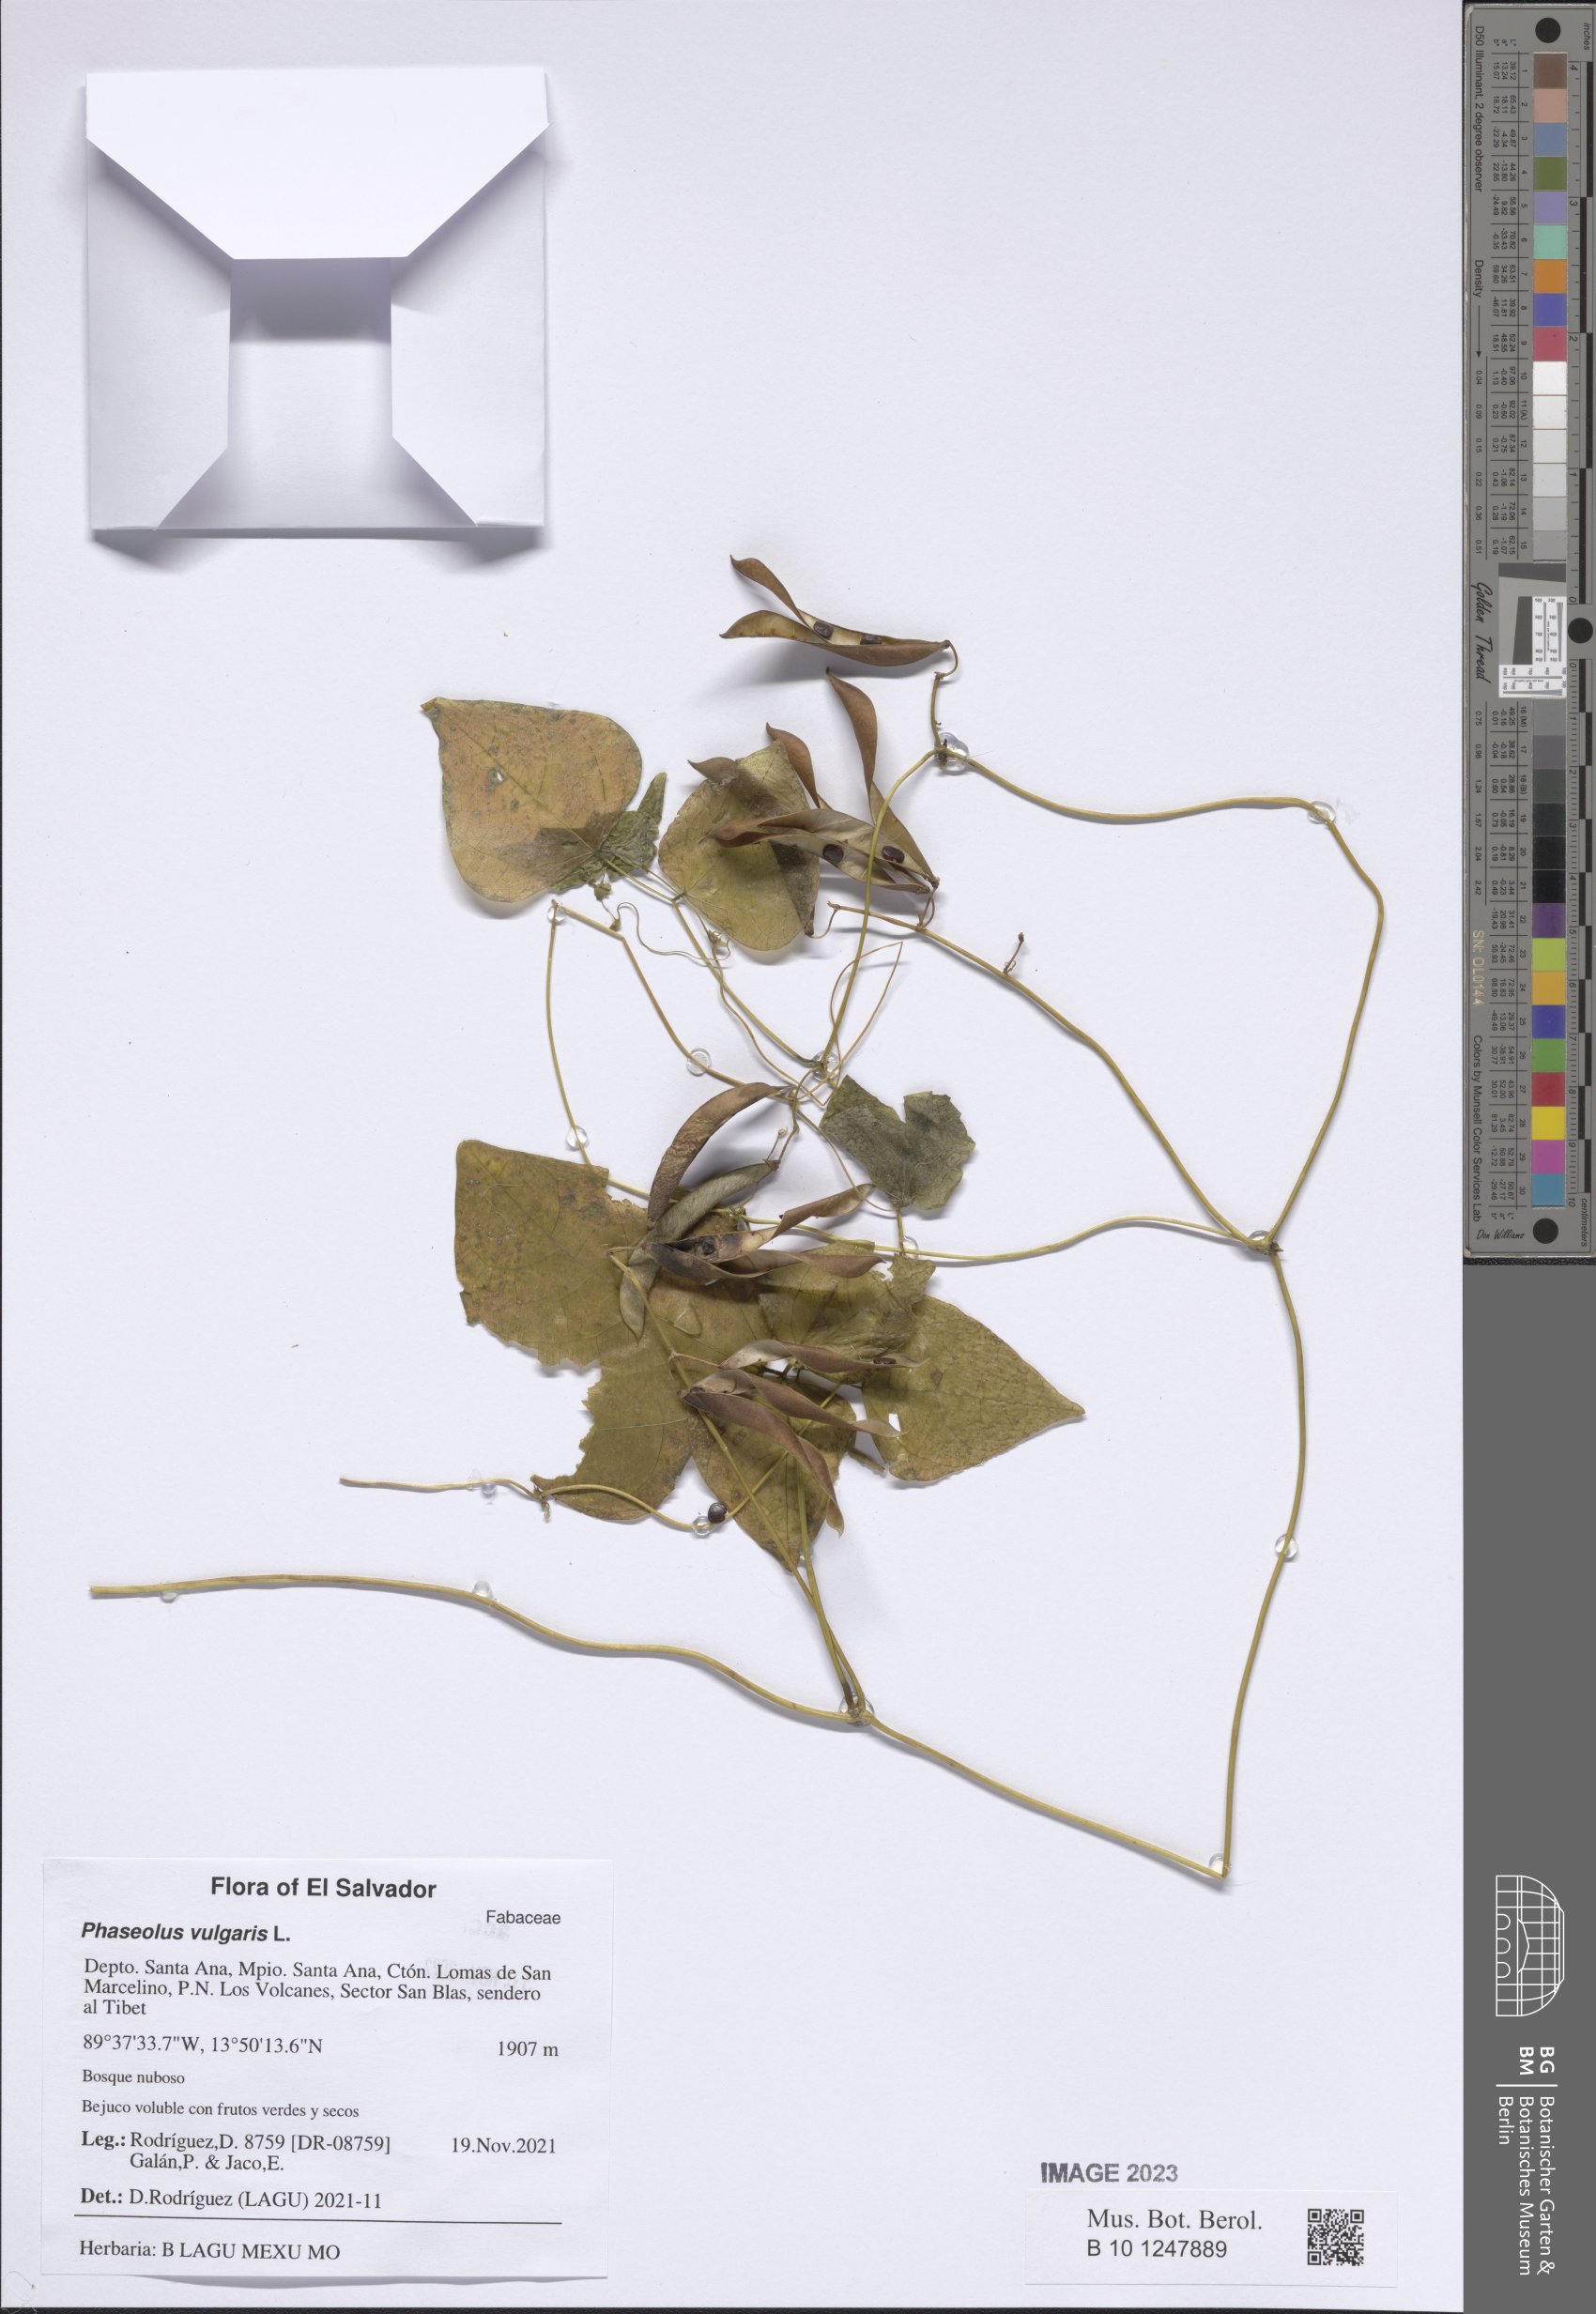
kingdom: Plantae
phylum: Tracheophyta
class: Magnoliopsida
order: Fabales
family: Fabaceae
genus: Phaseolus
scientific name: Phaseolus xanthotrichus
